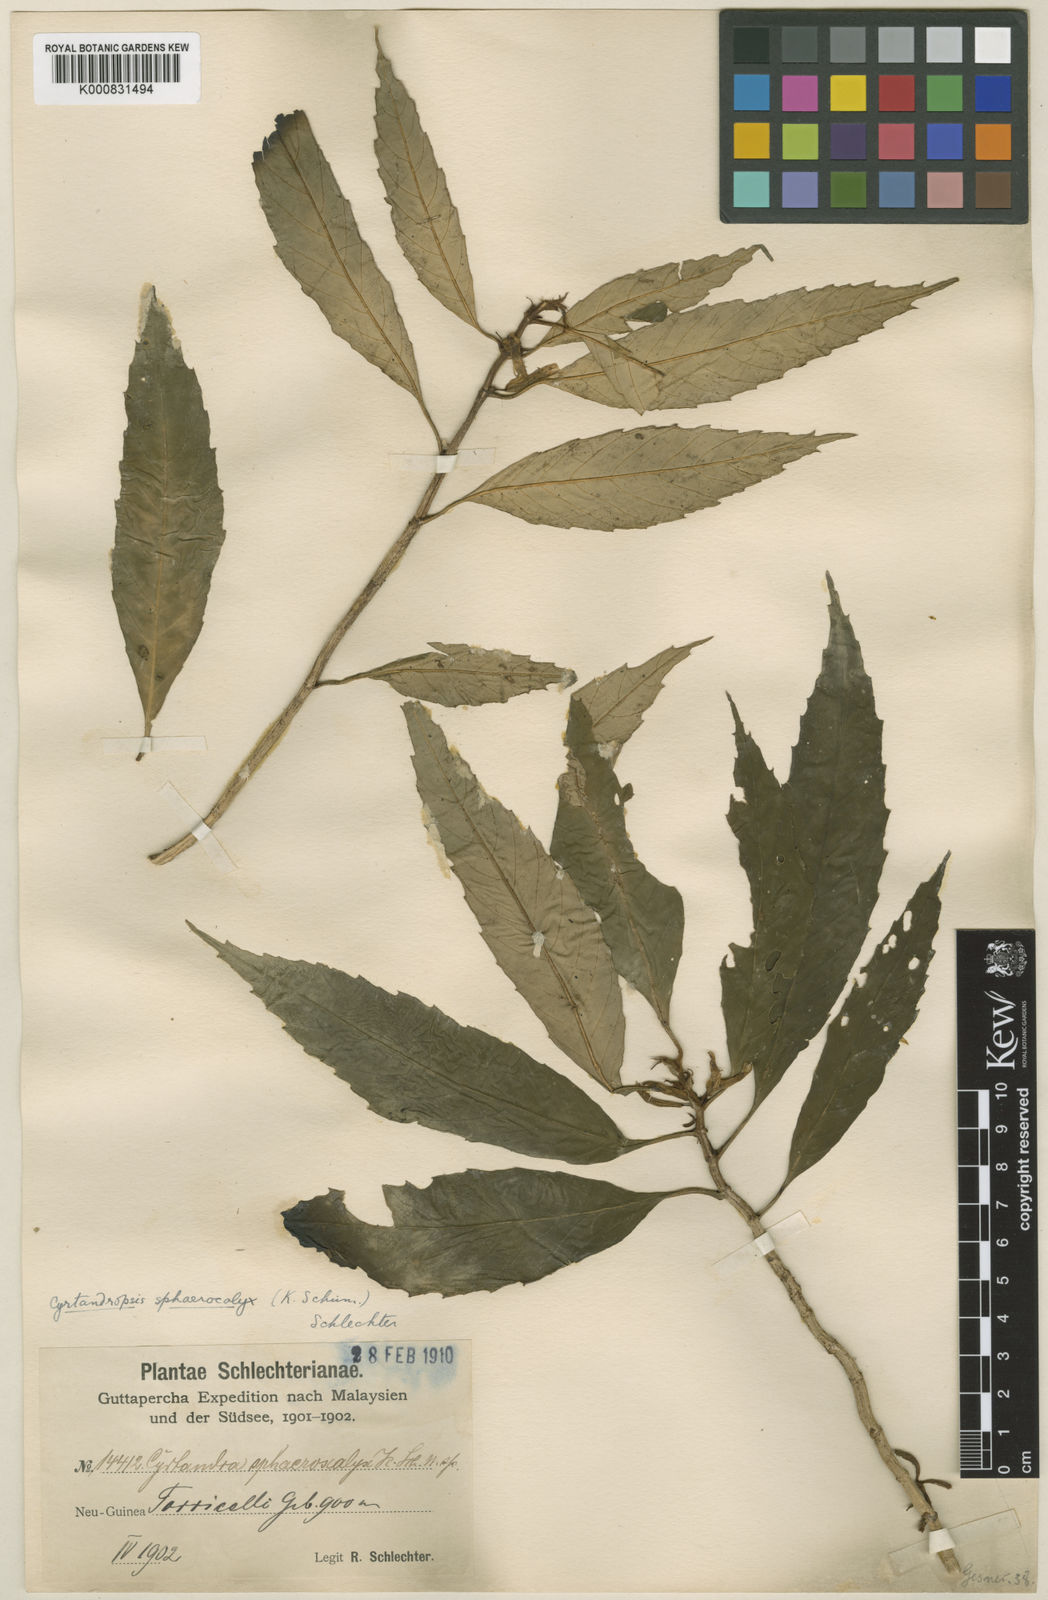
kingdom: Plantae
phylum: Tracheophyta
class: Magnoliopsida
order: Lamiales
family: Gesneriaceae
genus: Cyrtandra
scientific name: Cyrtandra sphaerocalyx
